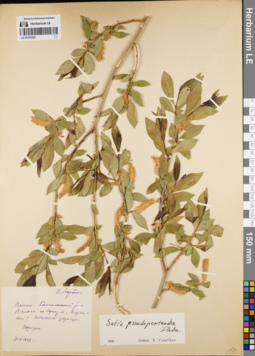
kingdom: Plantae
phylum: Tracheophyta
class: Magnoliopsida
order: Malpighiales
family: Salicaceae
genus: Salix
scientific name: Salix pseudopentandra
